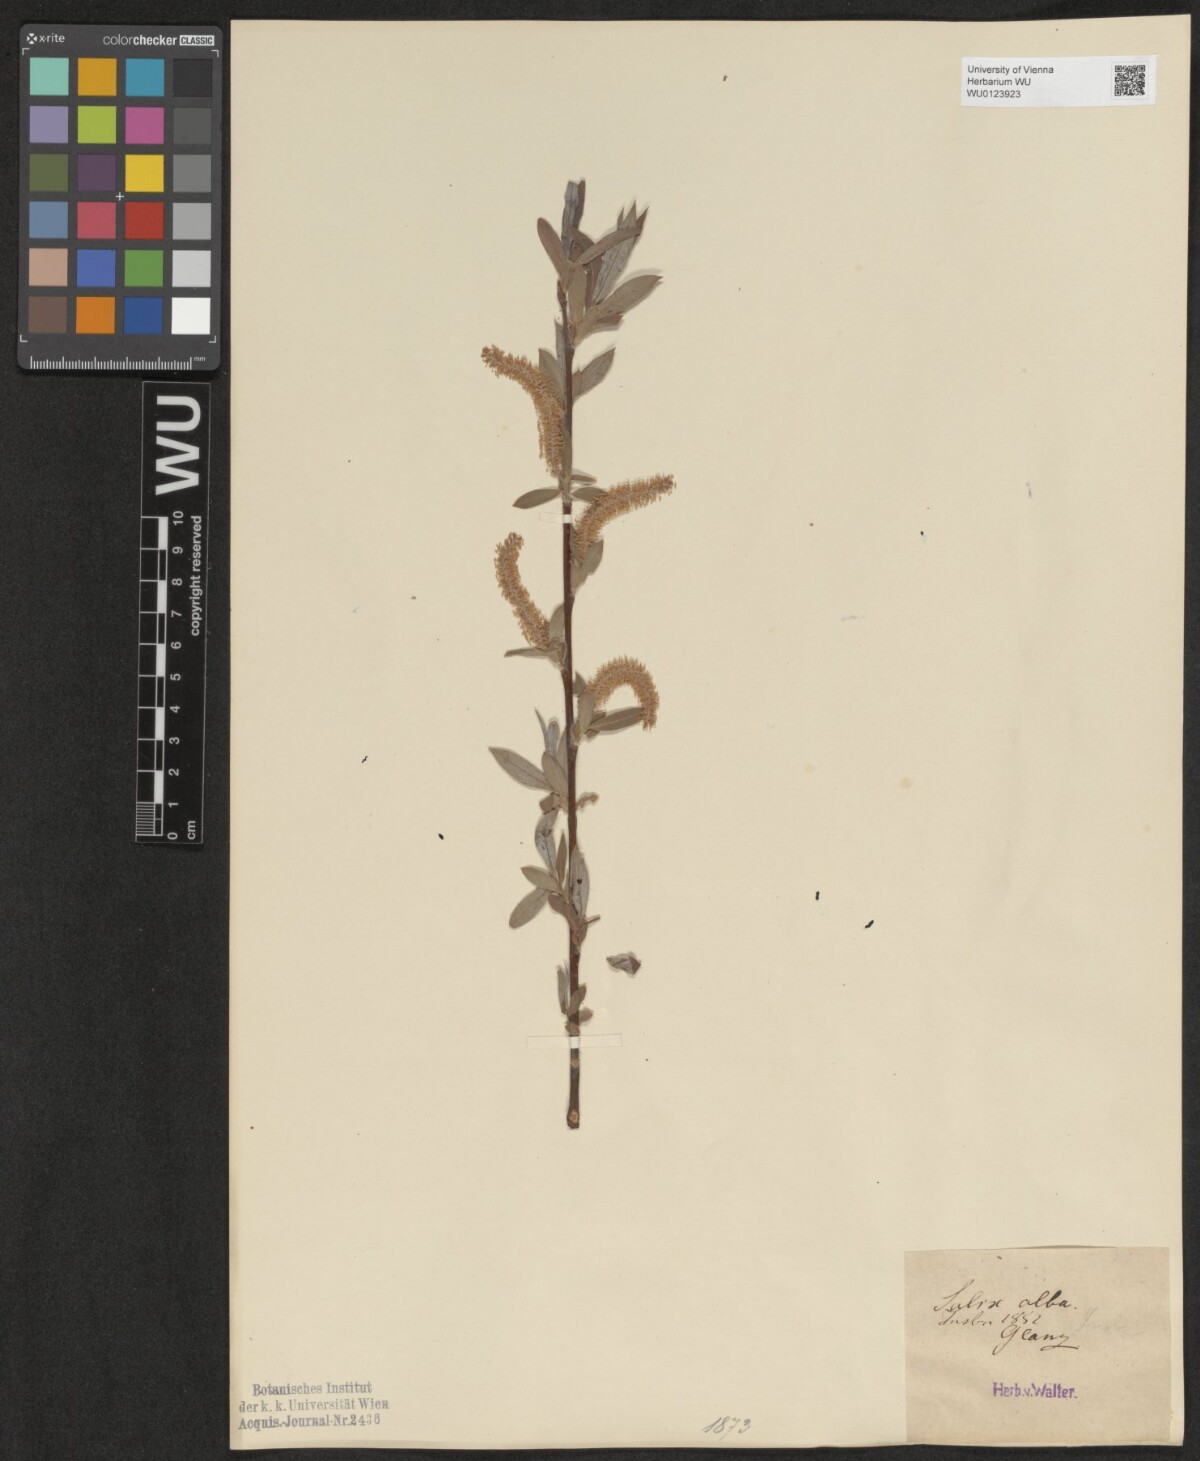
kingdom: Plantae
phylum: Tracheophyta
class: Magnoliopsida
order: Malpighiales
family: Salicaceae
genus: Salix
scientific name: Salix alba
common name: White willow
